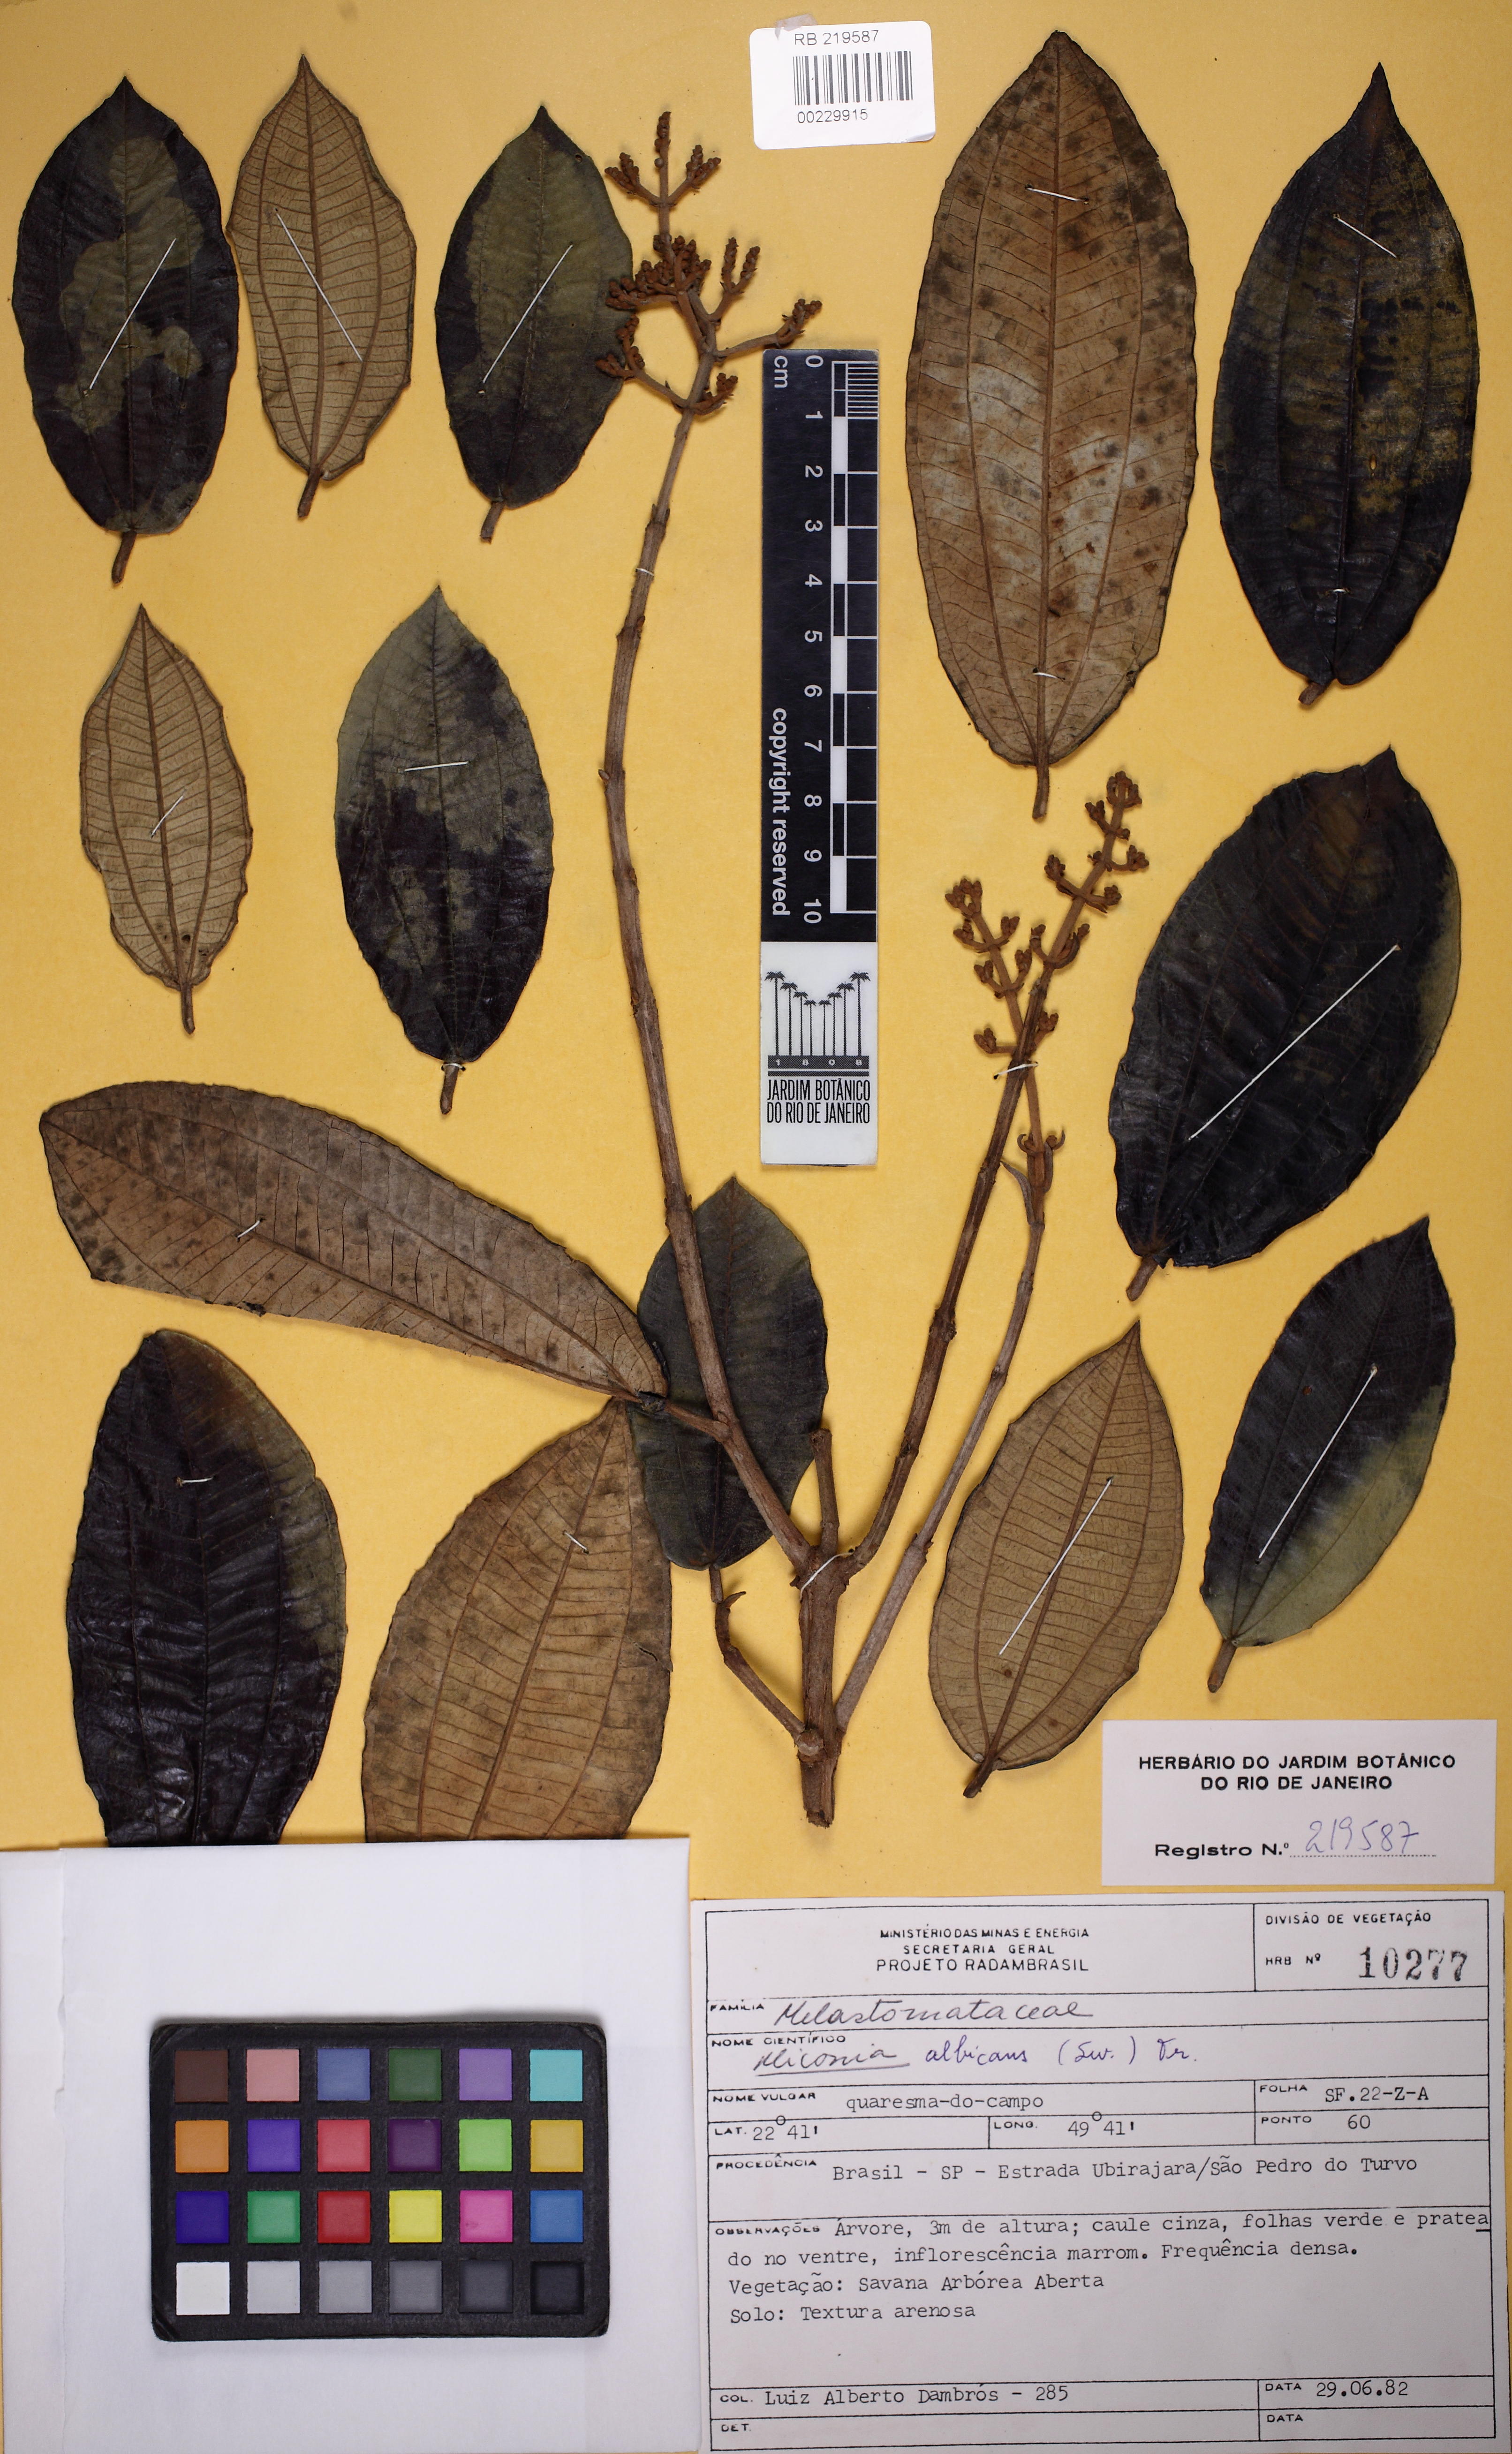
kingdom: Plantae
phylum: Tracheophyta
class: Magnoliopsida
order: Myrtales
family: Melastomataceae
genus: Miconia
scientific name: Miconia albicans
